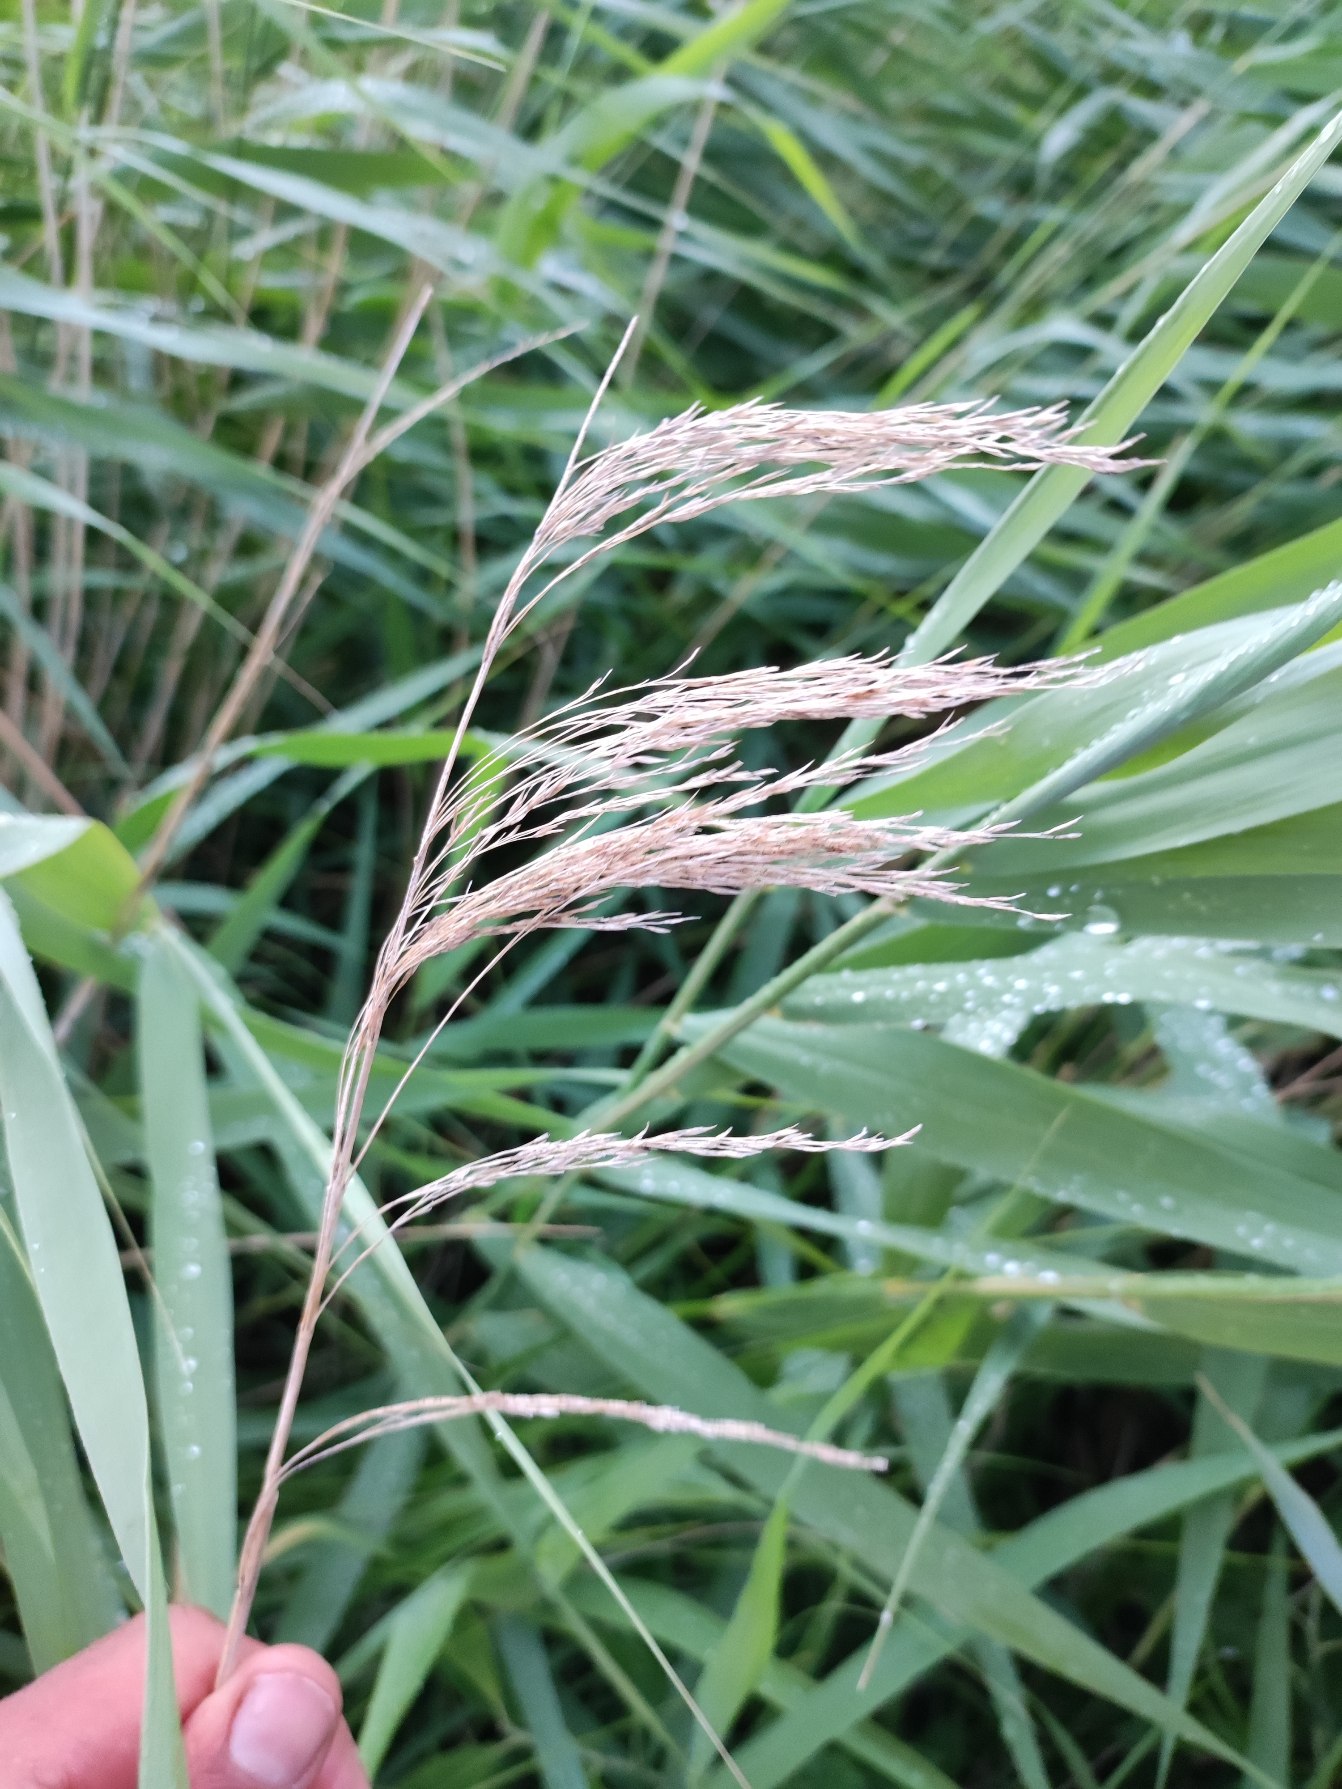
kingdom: Plantae
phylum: Tracheophyta
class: Liliopsida
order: Poales
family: Poaceae
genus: Phragmites
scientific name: Phragmites australis
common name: Tagrør
